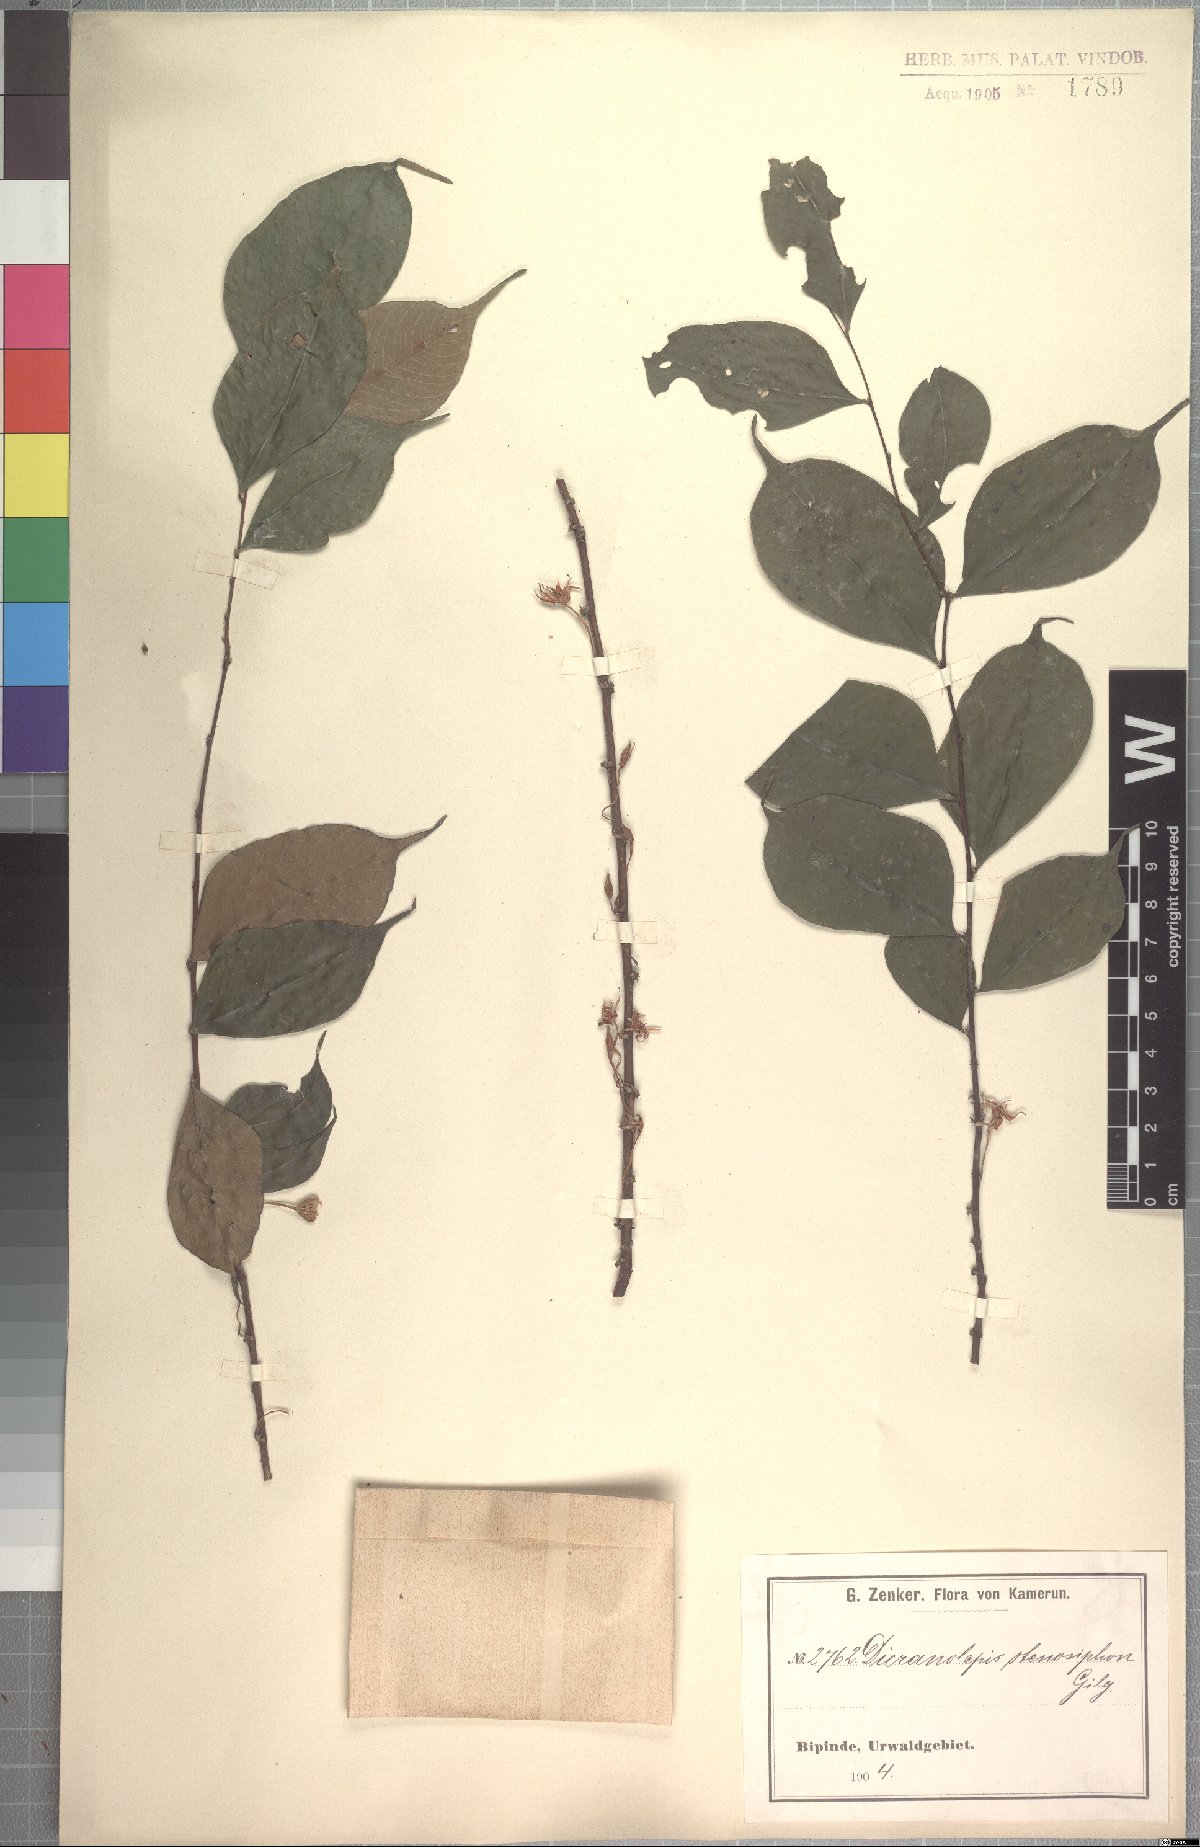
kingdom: Plantae
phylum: Tracheophyta
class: Magnoliopsida
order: Malvales
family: Thymelaeaceae
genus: Dicranolepis
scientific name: Dicranolepis disticha
